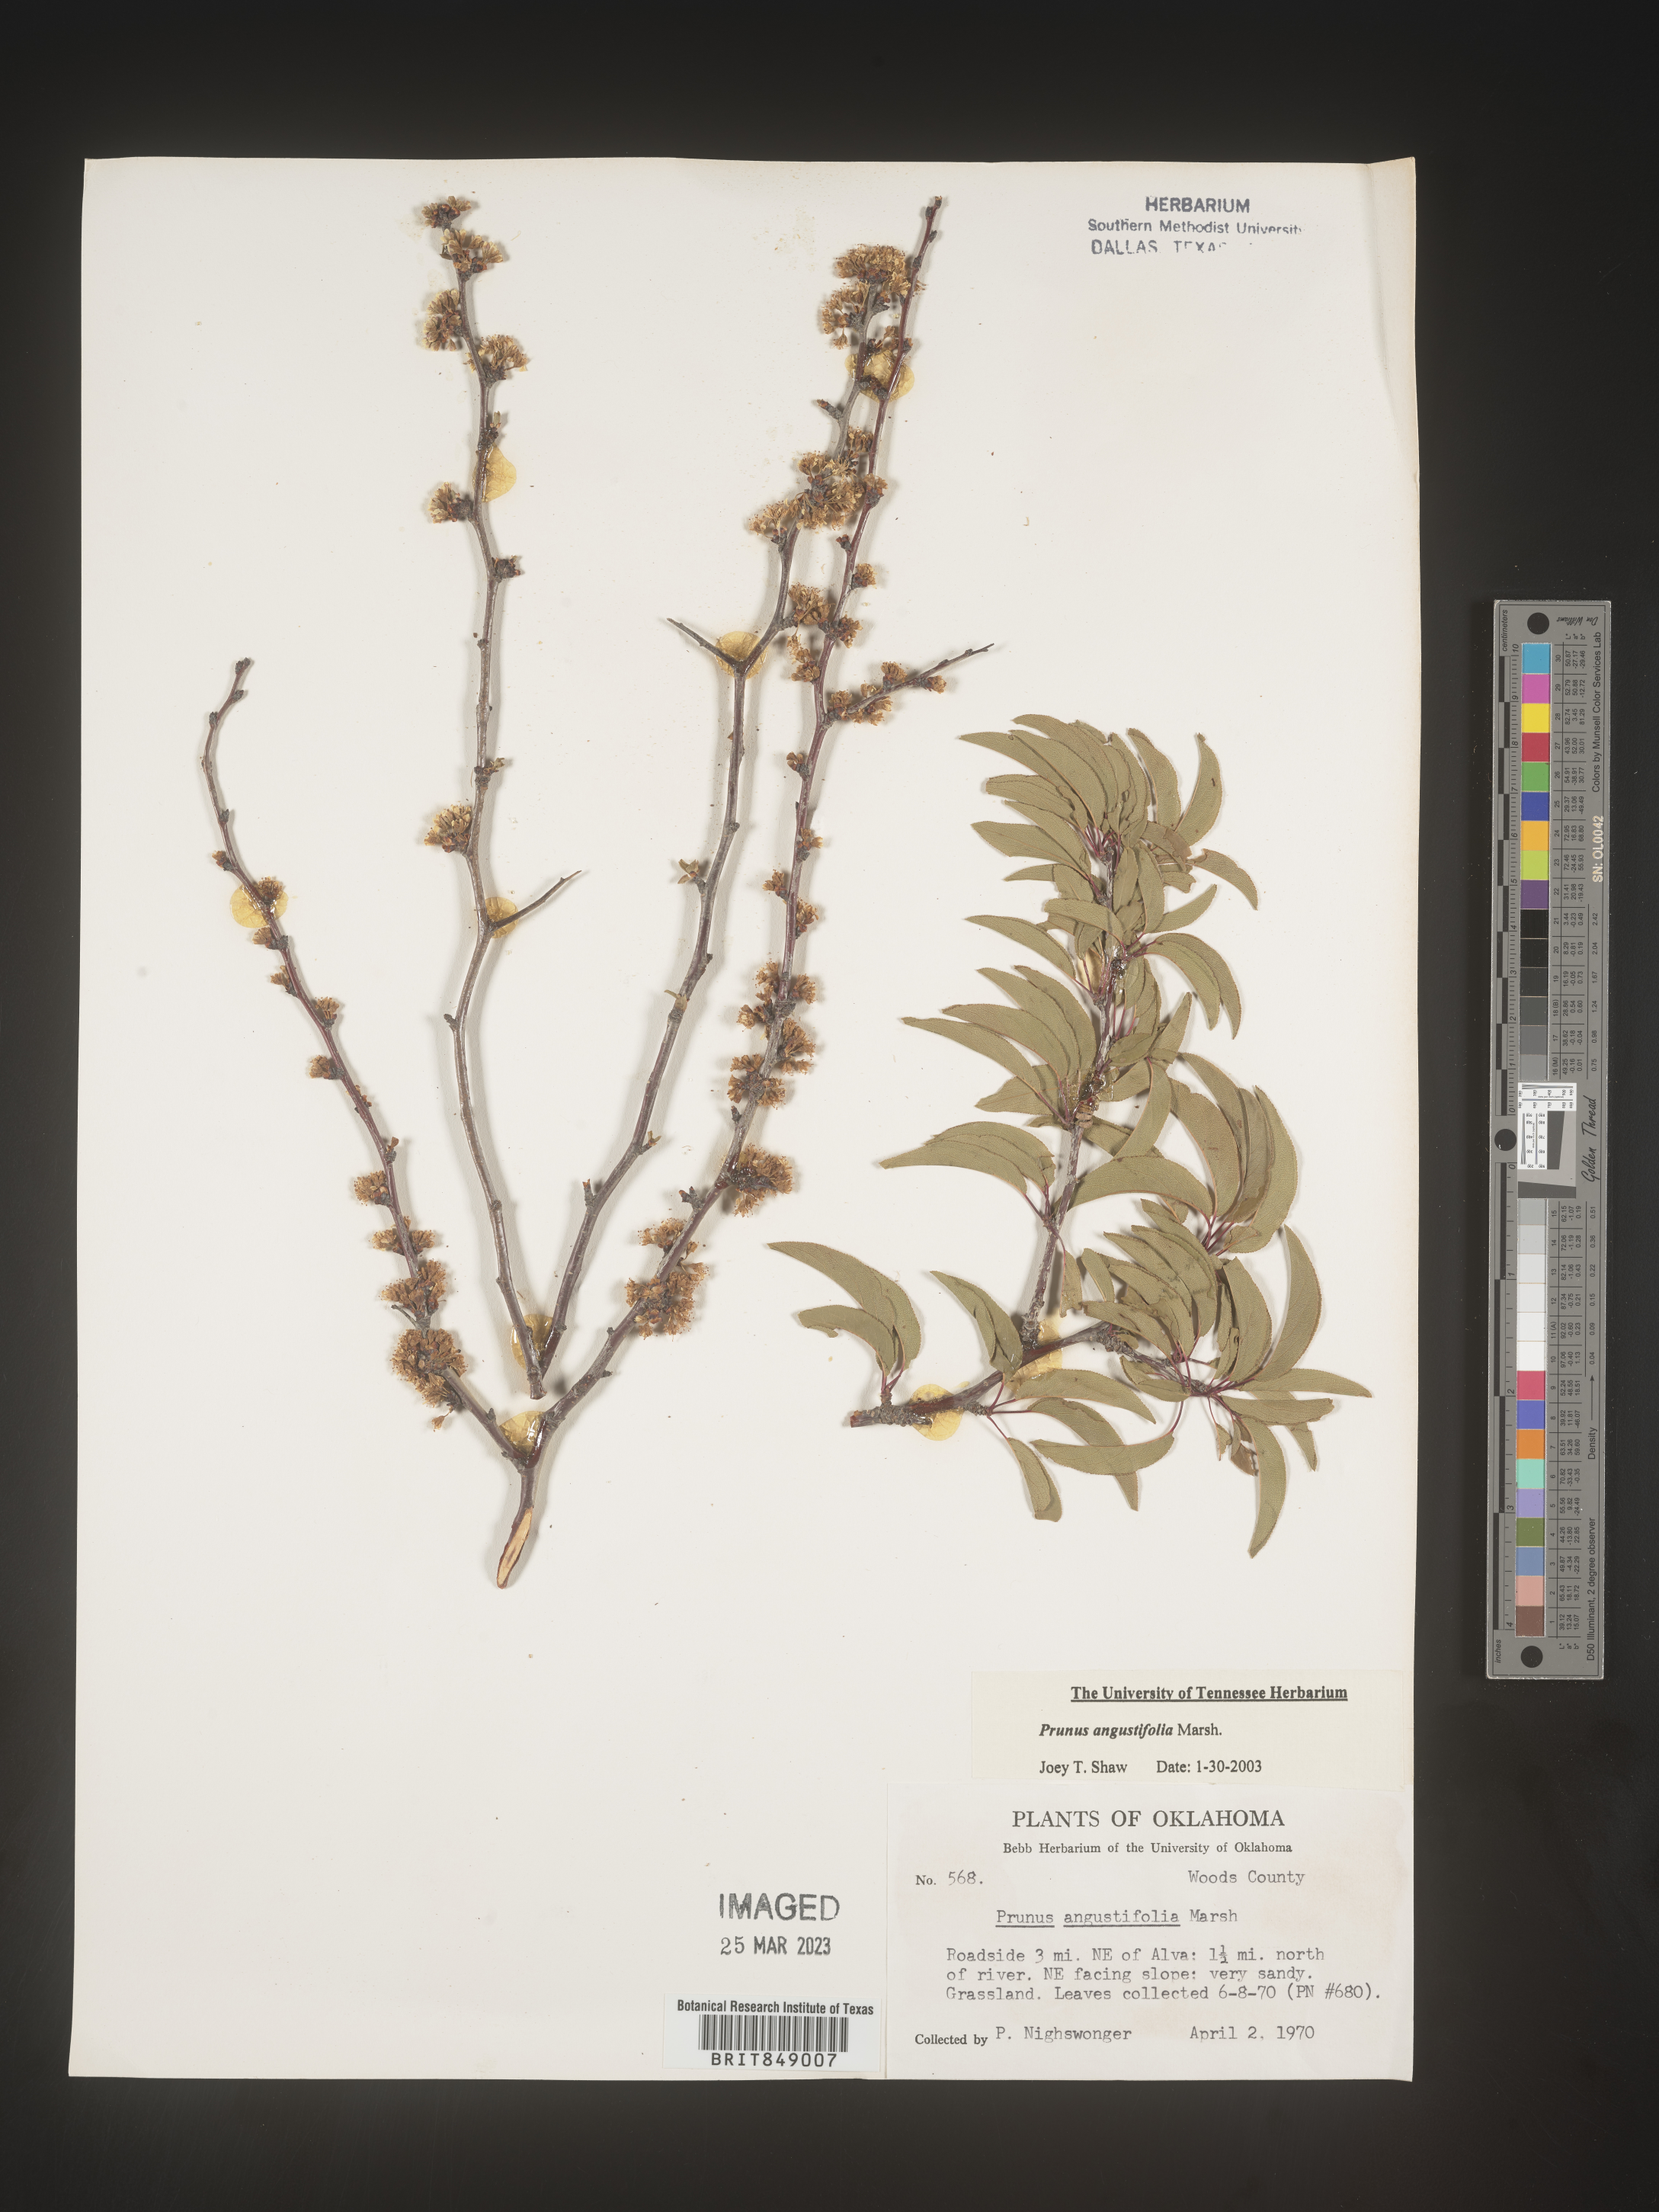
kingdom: Plantae
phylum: Tracheophyta
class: Magnoliopsida
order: Rosales
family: Rosaceae
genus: Prunus
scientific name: Prunus angustifolia
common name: Cherokee plum
